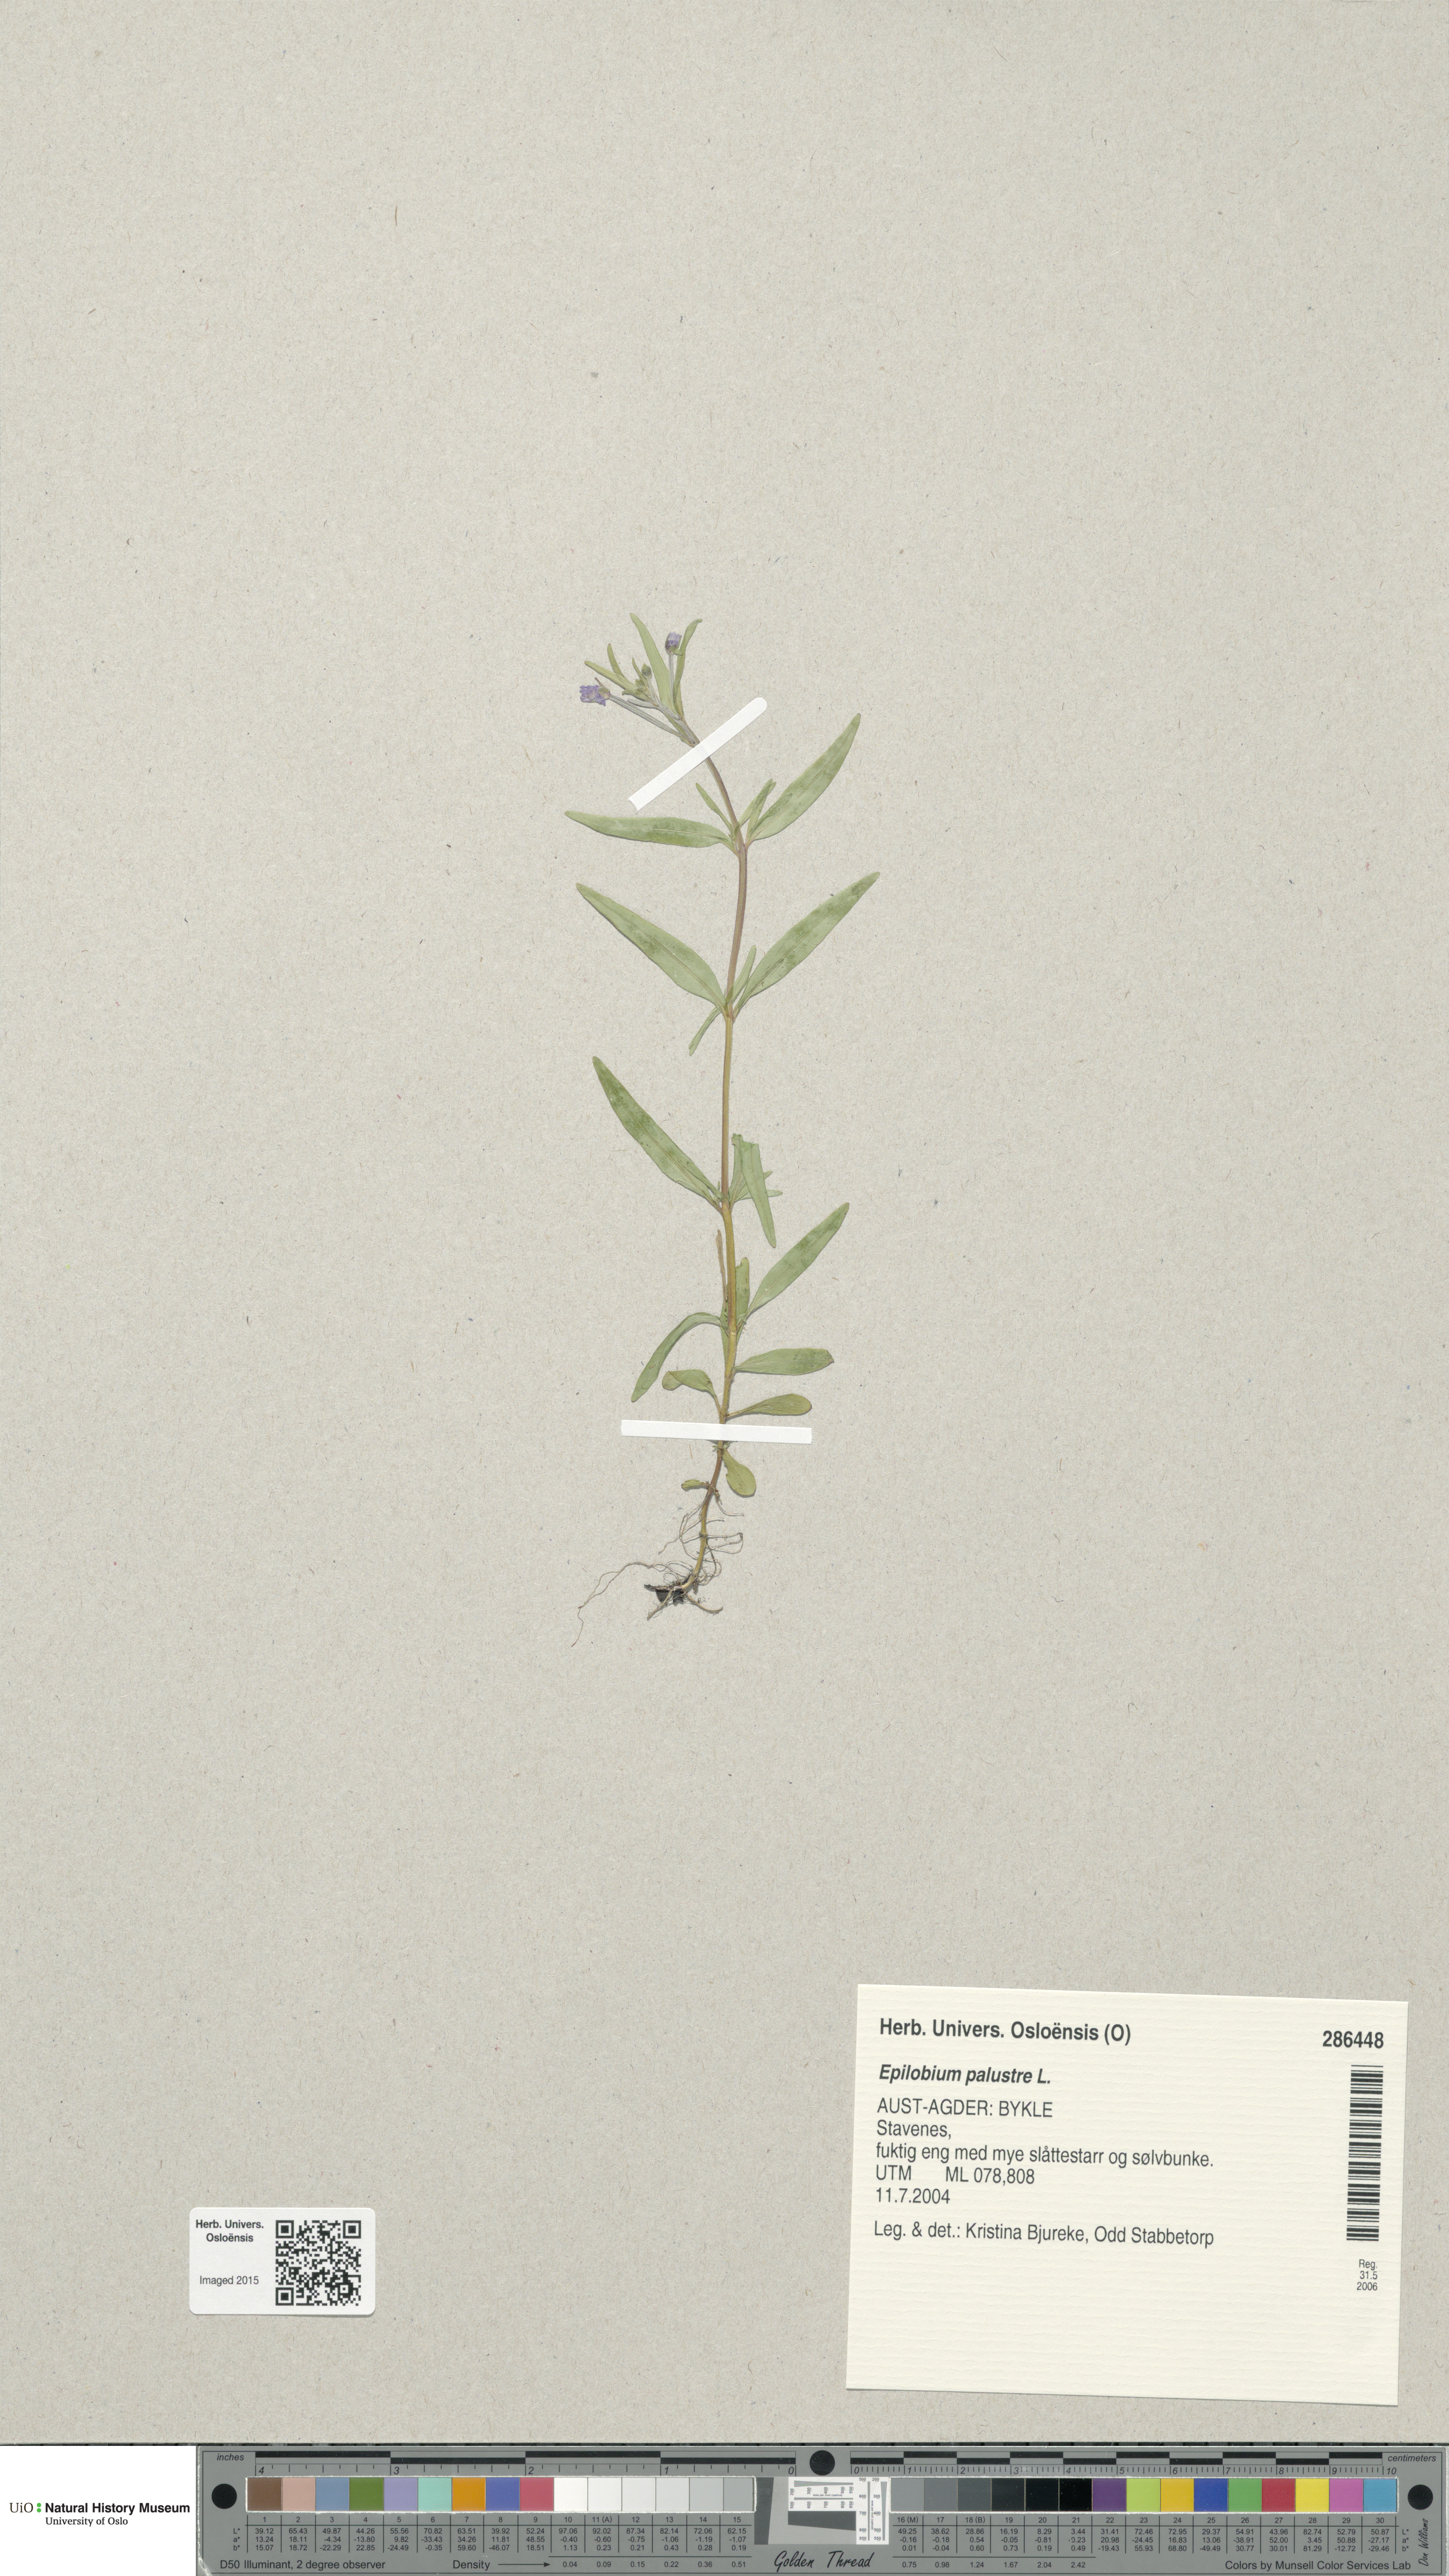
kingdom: Plantae
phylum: Tracheophyta
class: Magnoliopsida
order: Myrtales
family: Onagraceae
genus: Epilobium
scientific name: Epilobium palustre
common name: Marsh willowherb
